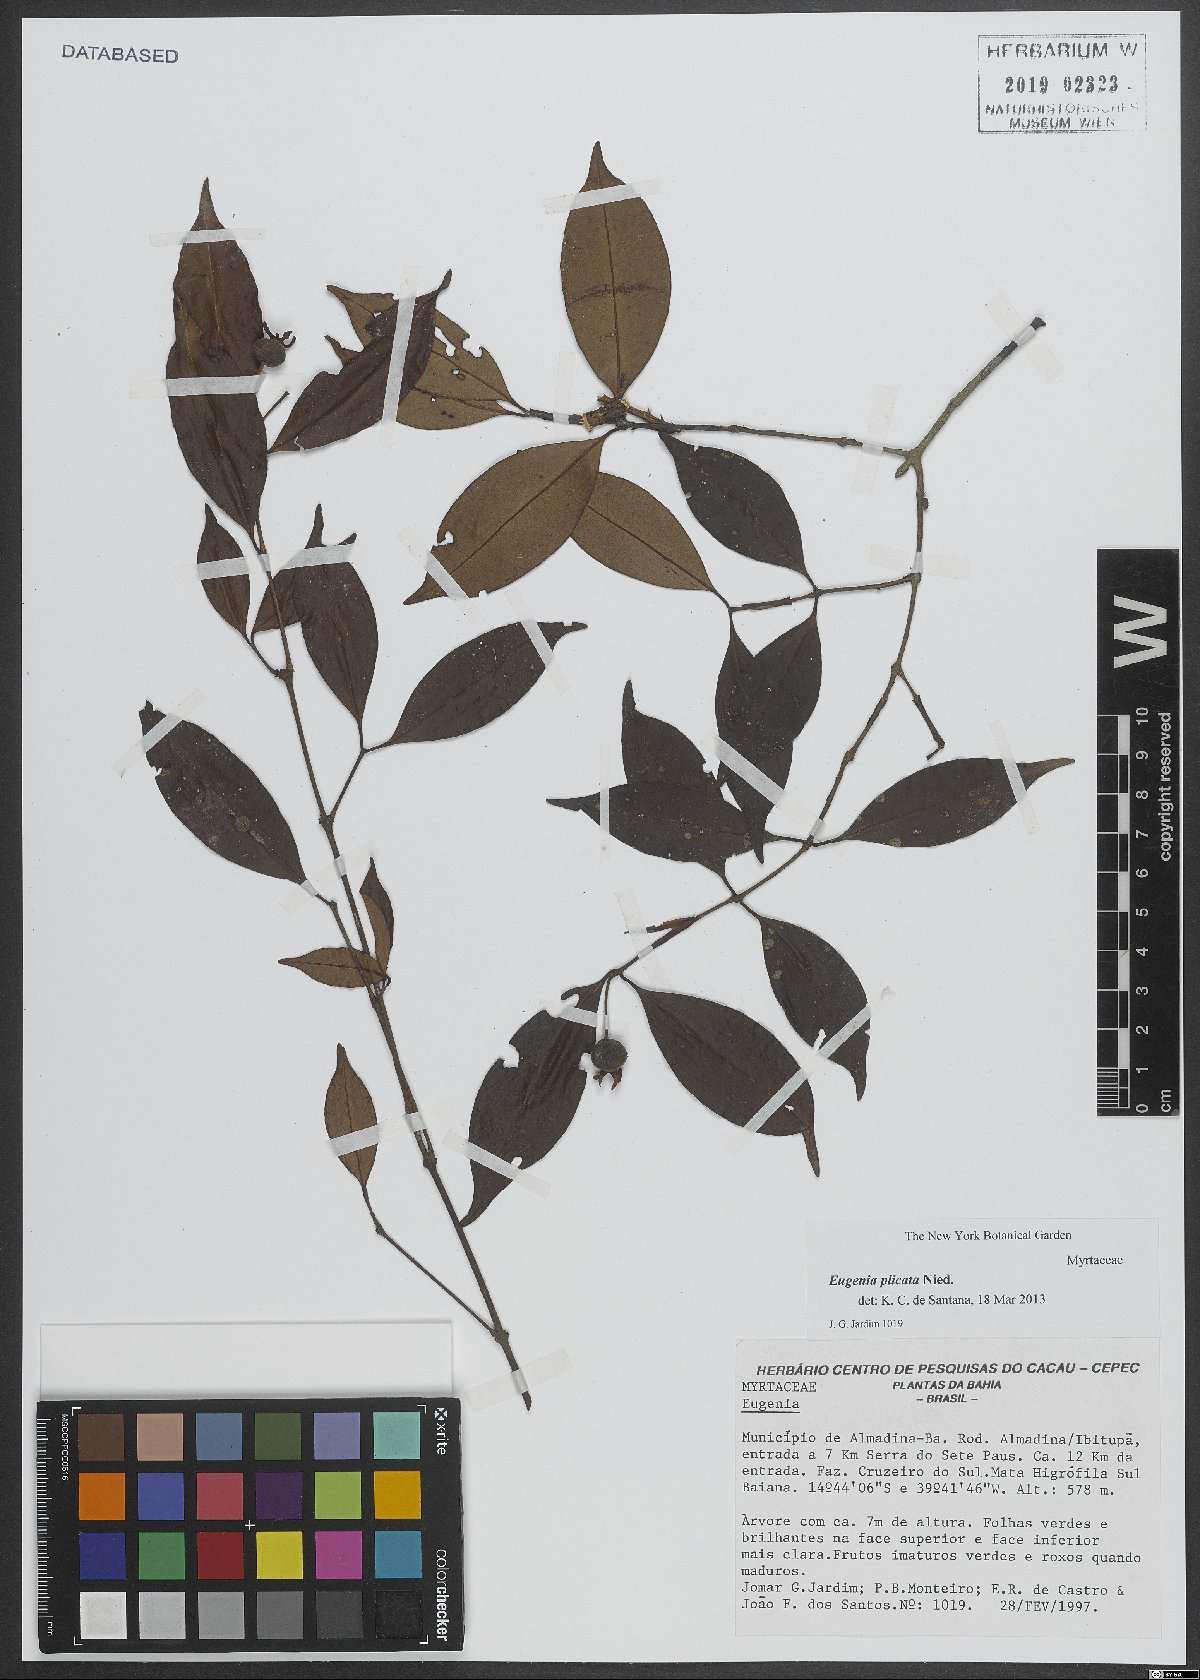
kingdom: Plantae
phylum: Tracheophyta
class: Magnoliopsida
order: Myrtales
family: Myrtaceae
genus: Eugenia
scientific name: Eugenia plicata
